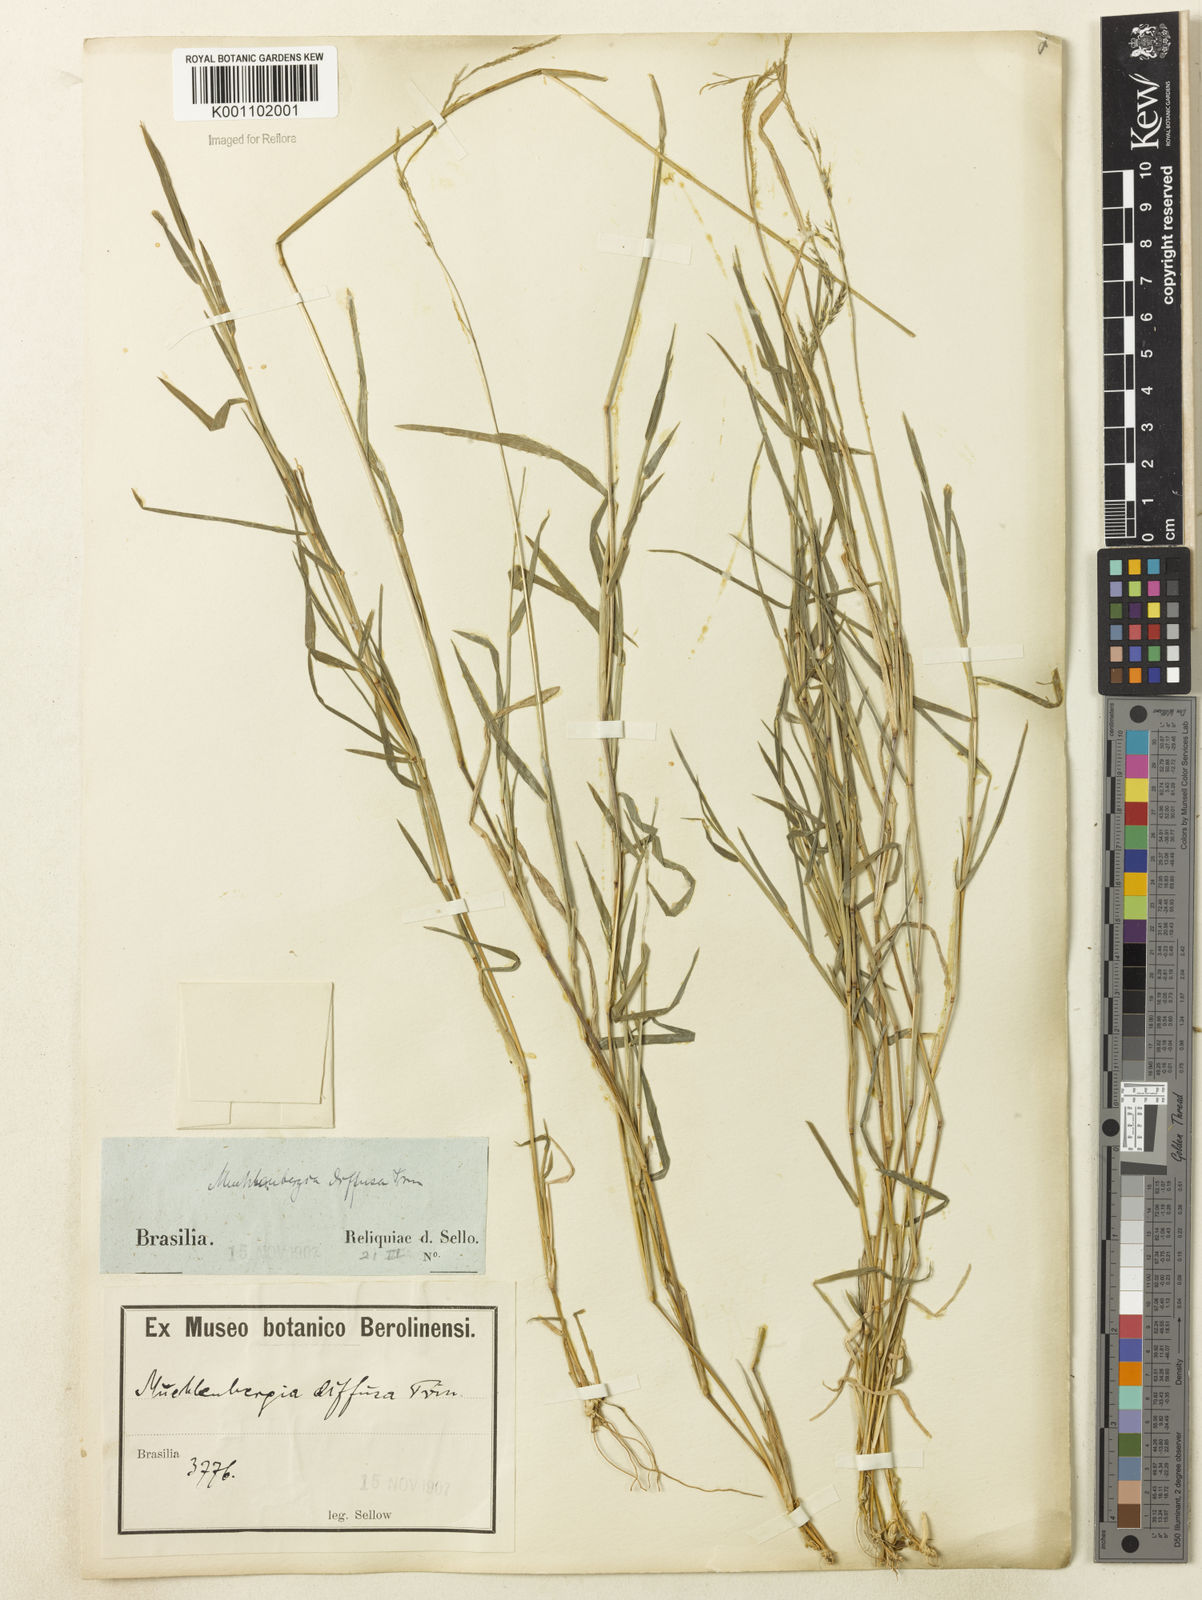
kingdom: Plantae
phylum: Tracheophyta
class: Liliopsida
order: Poales
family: Poaceae
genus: Muhlenbergia
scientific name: Muhlenbergia schreberi
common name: Nimblewill
